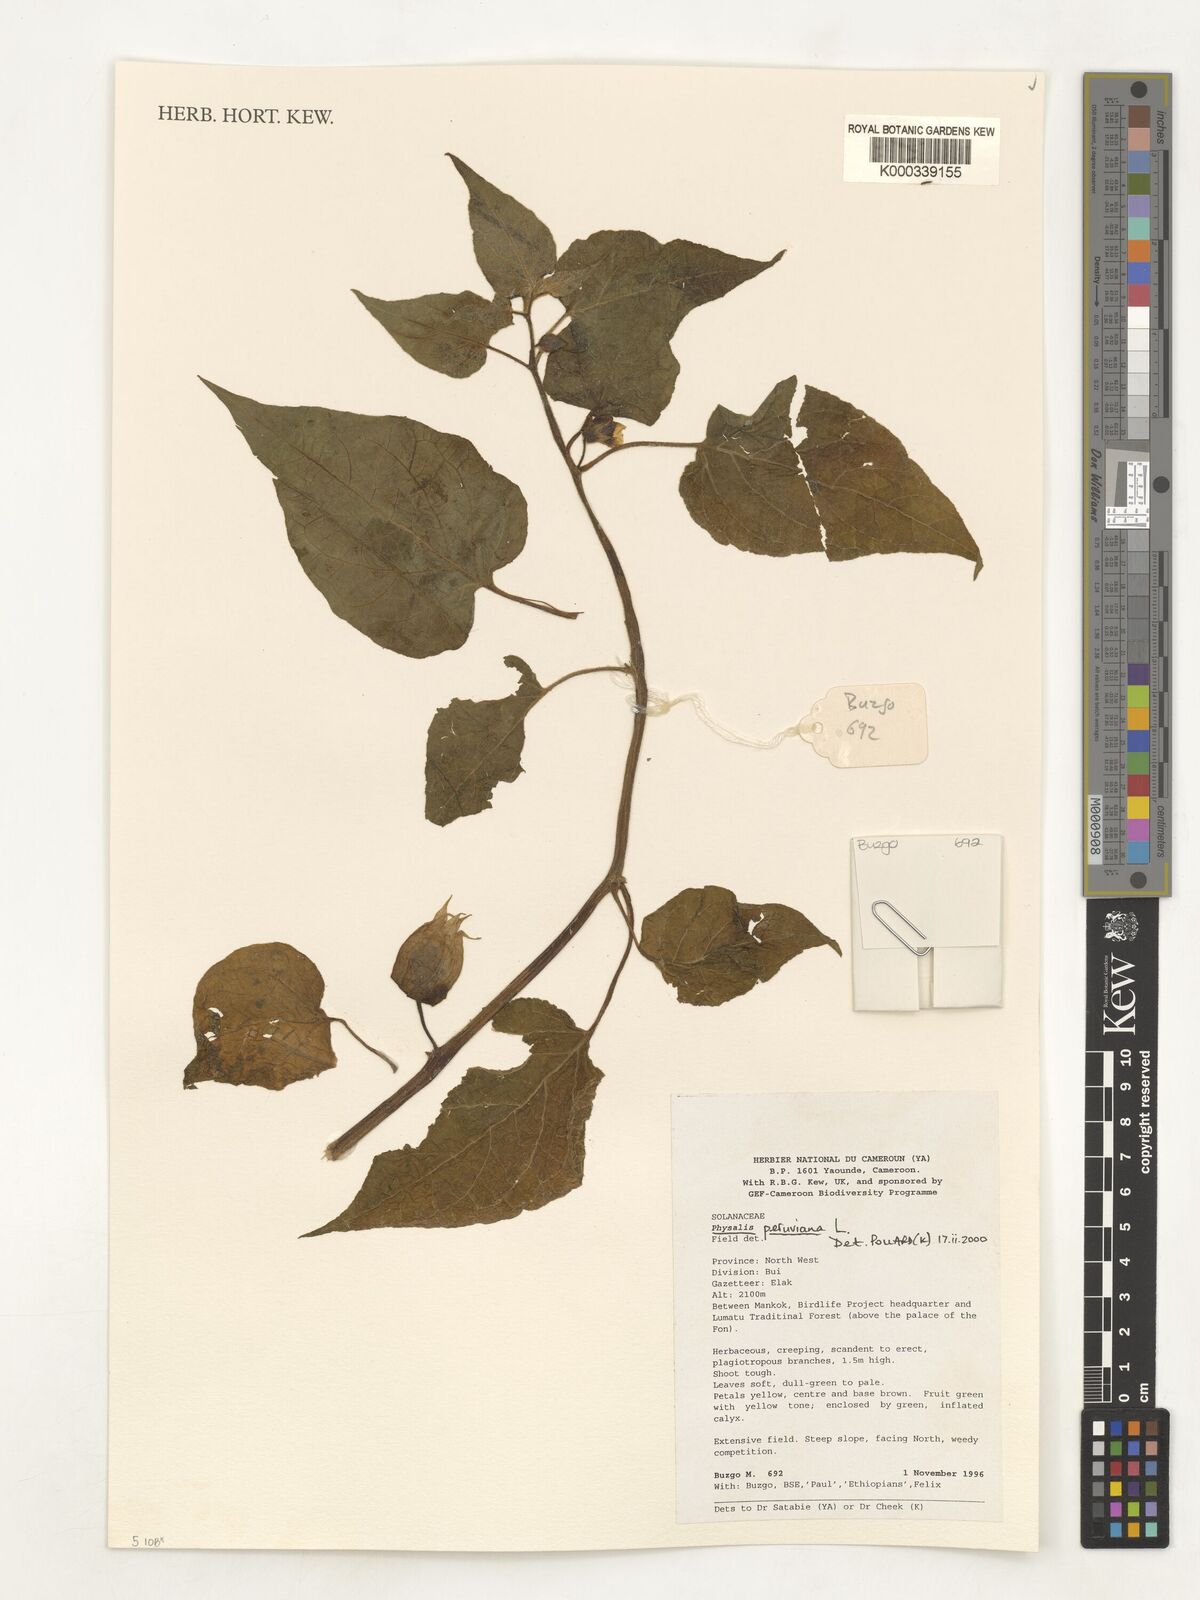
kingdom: Plantae
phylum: Tracheophyta
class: Magnoliopsida
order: Solanales
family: Solanaceae
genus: Physalis
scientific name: Physalis peruviana
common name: Cape-gooseberry
